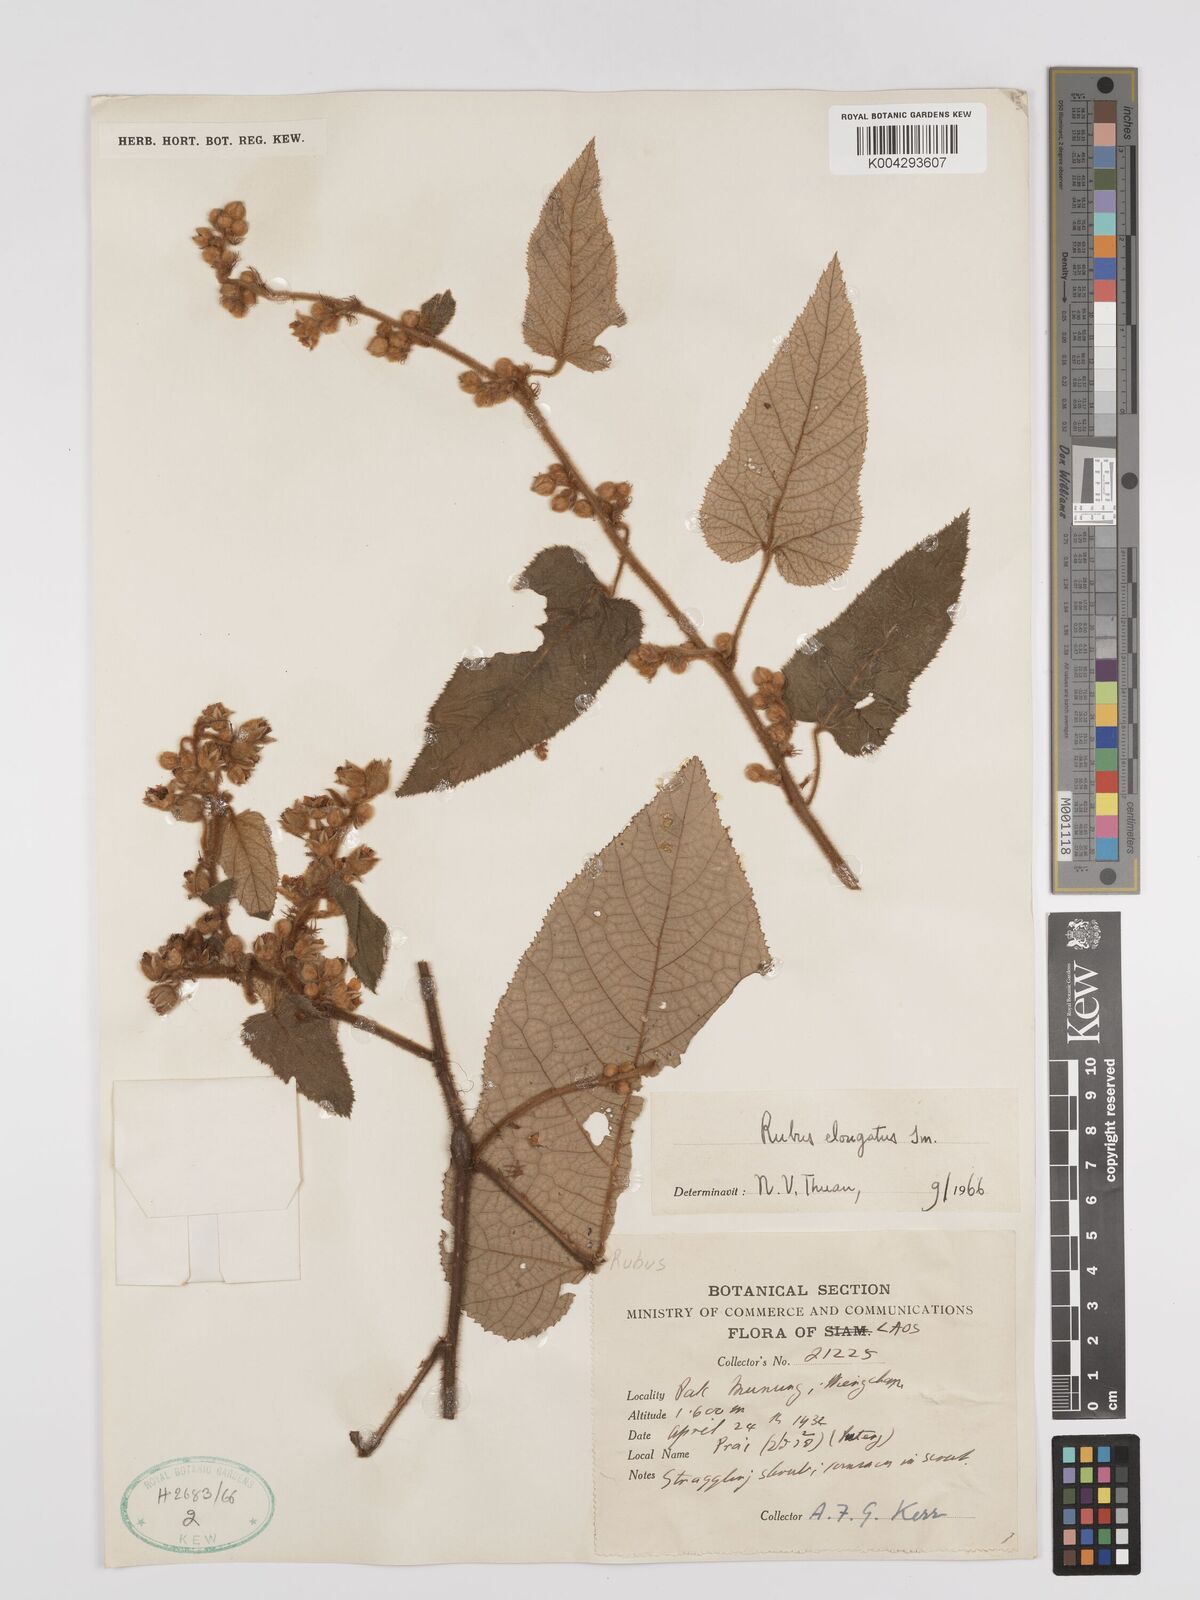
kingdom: Plantae
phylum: Tracheophyta
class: Magnoliopsida
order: Rosales
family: Rosaceae
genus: Rubus
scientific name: Rubus
